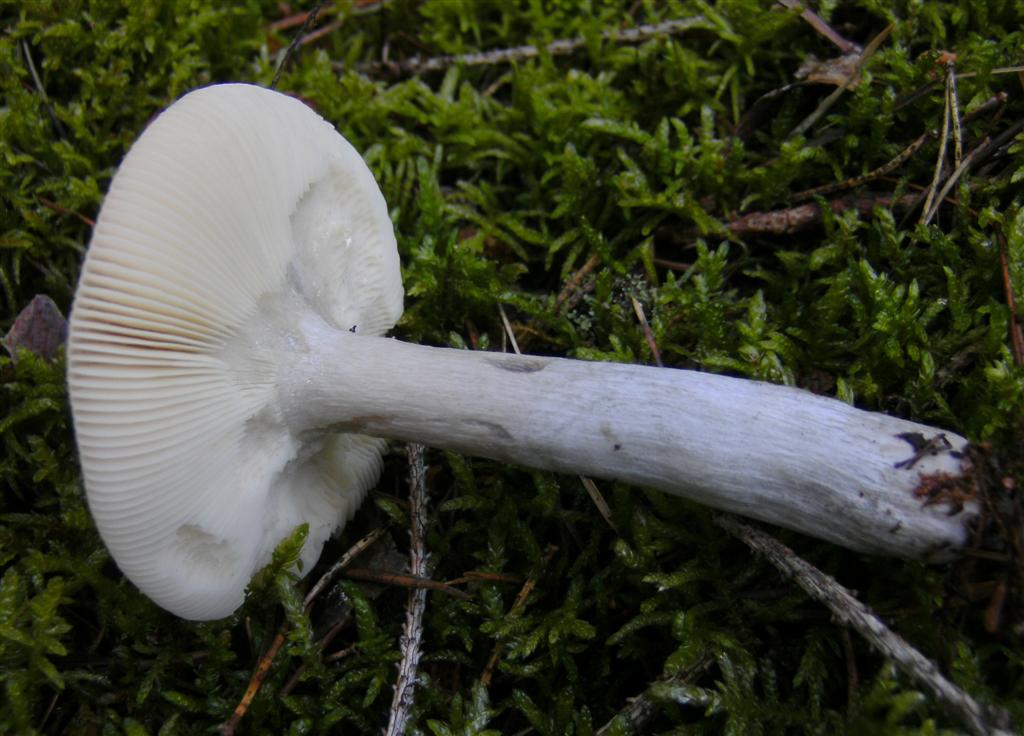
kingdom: Fungi
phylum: Basidiomycota
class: Agaricomycetes
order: Russulales
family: Russulaceae
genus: Russula
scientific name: Russula decolorans
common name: afblegende skørhat
